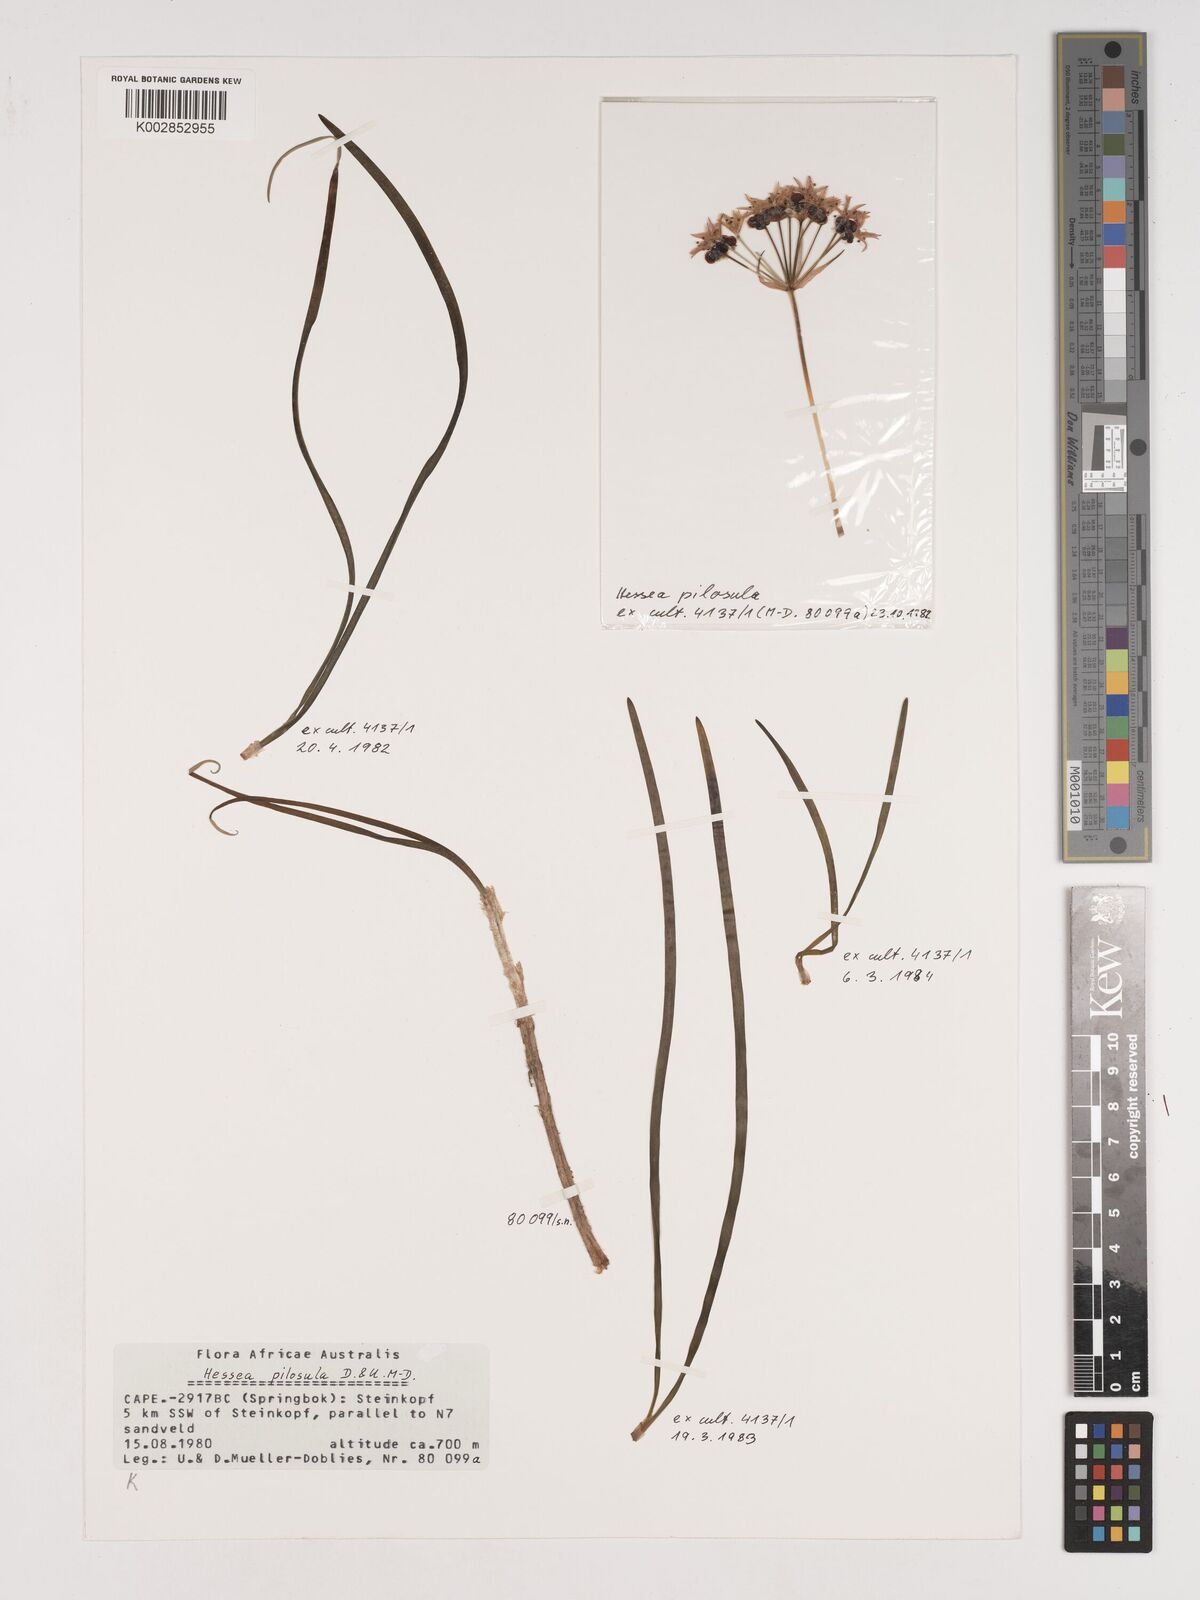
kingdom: Plantae
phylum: Tracheophyta
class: Liliopsida
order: Asparagales
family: Amaryllidaceae
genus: Hessea
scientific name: Hessea pilosula
